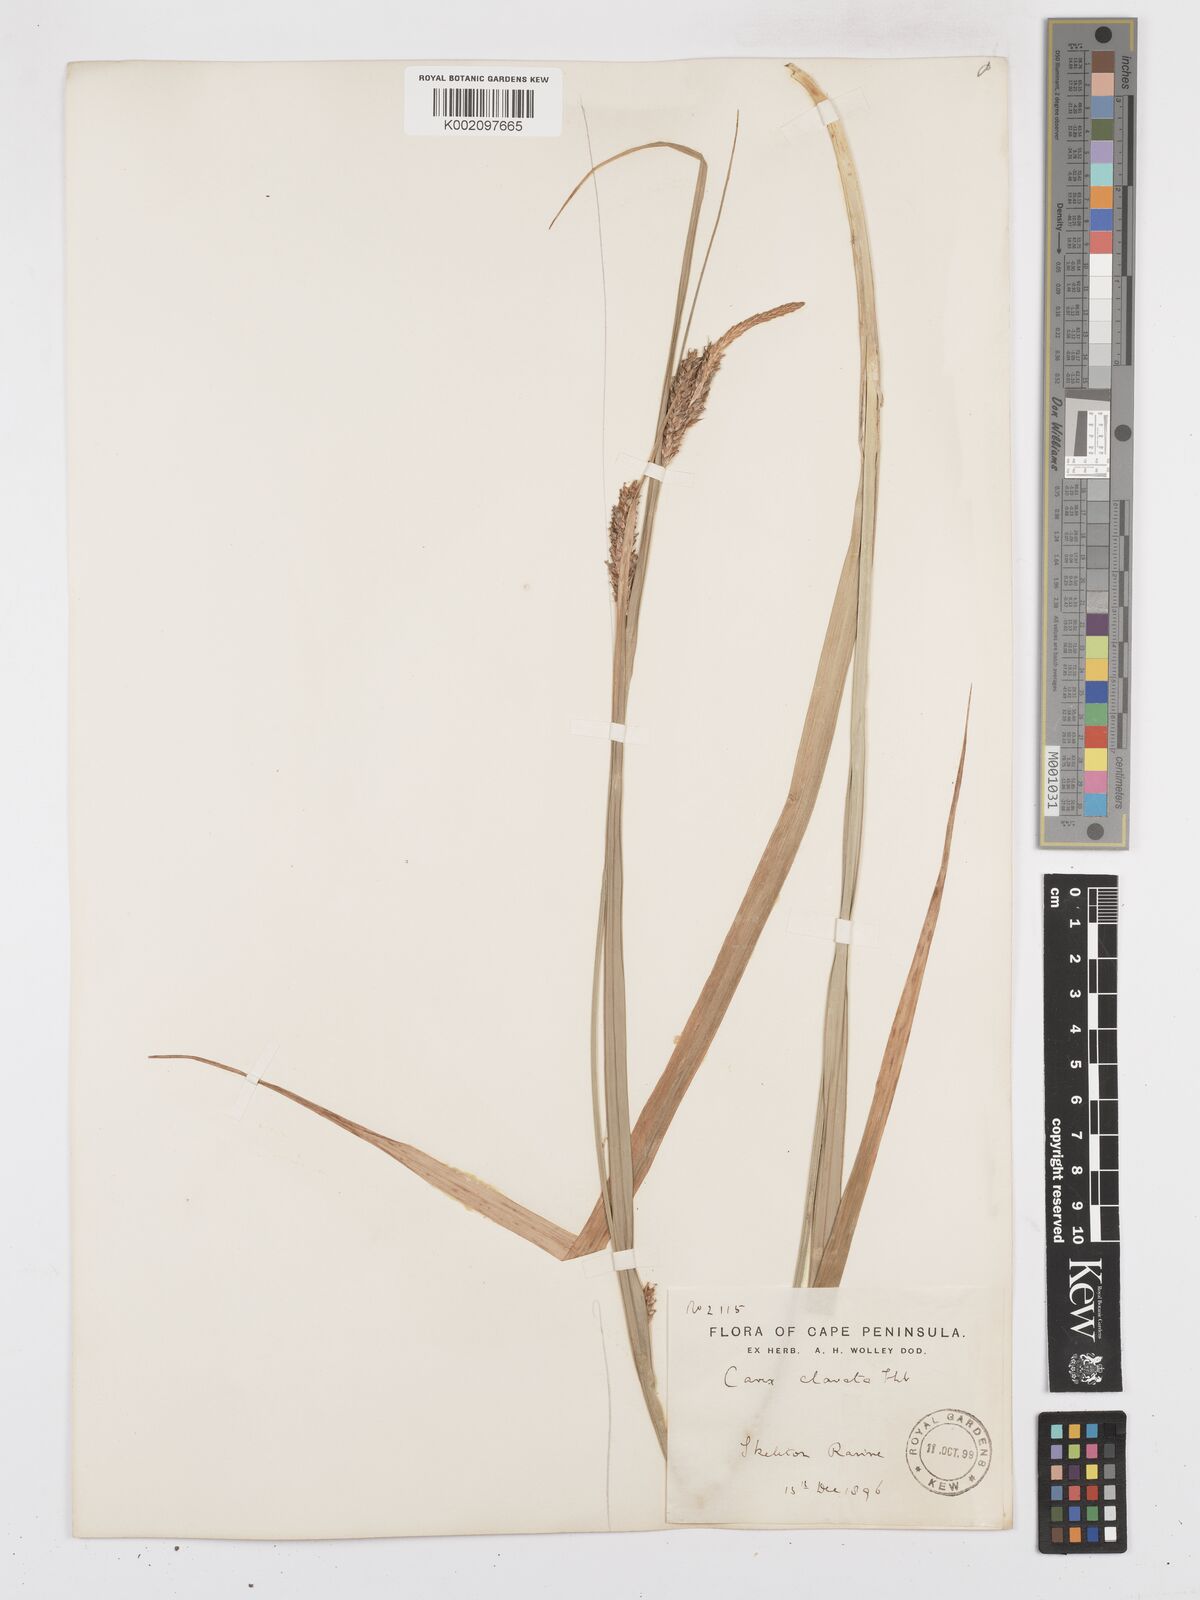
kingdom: Plantae
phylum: Tracheophyta
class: Liliopsida
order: Poales
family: Cyperaceae
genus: Carex
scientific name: Carex clavata
